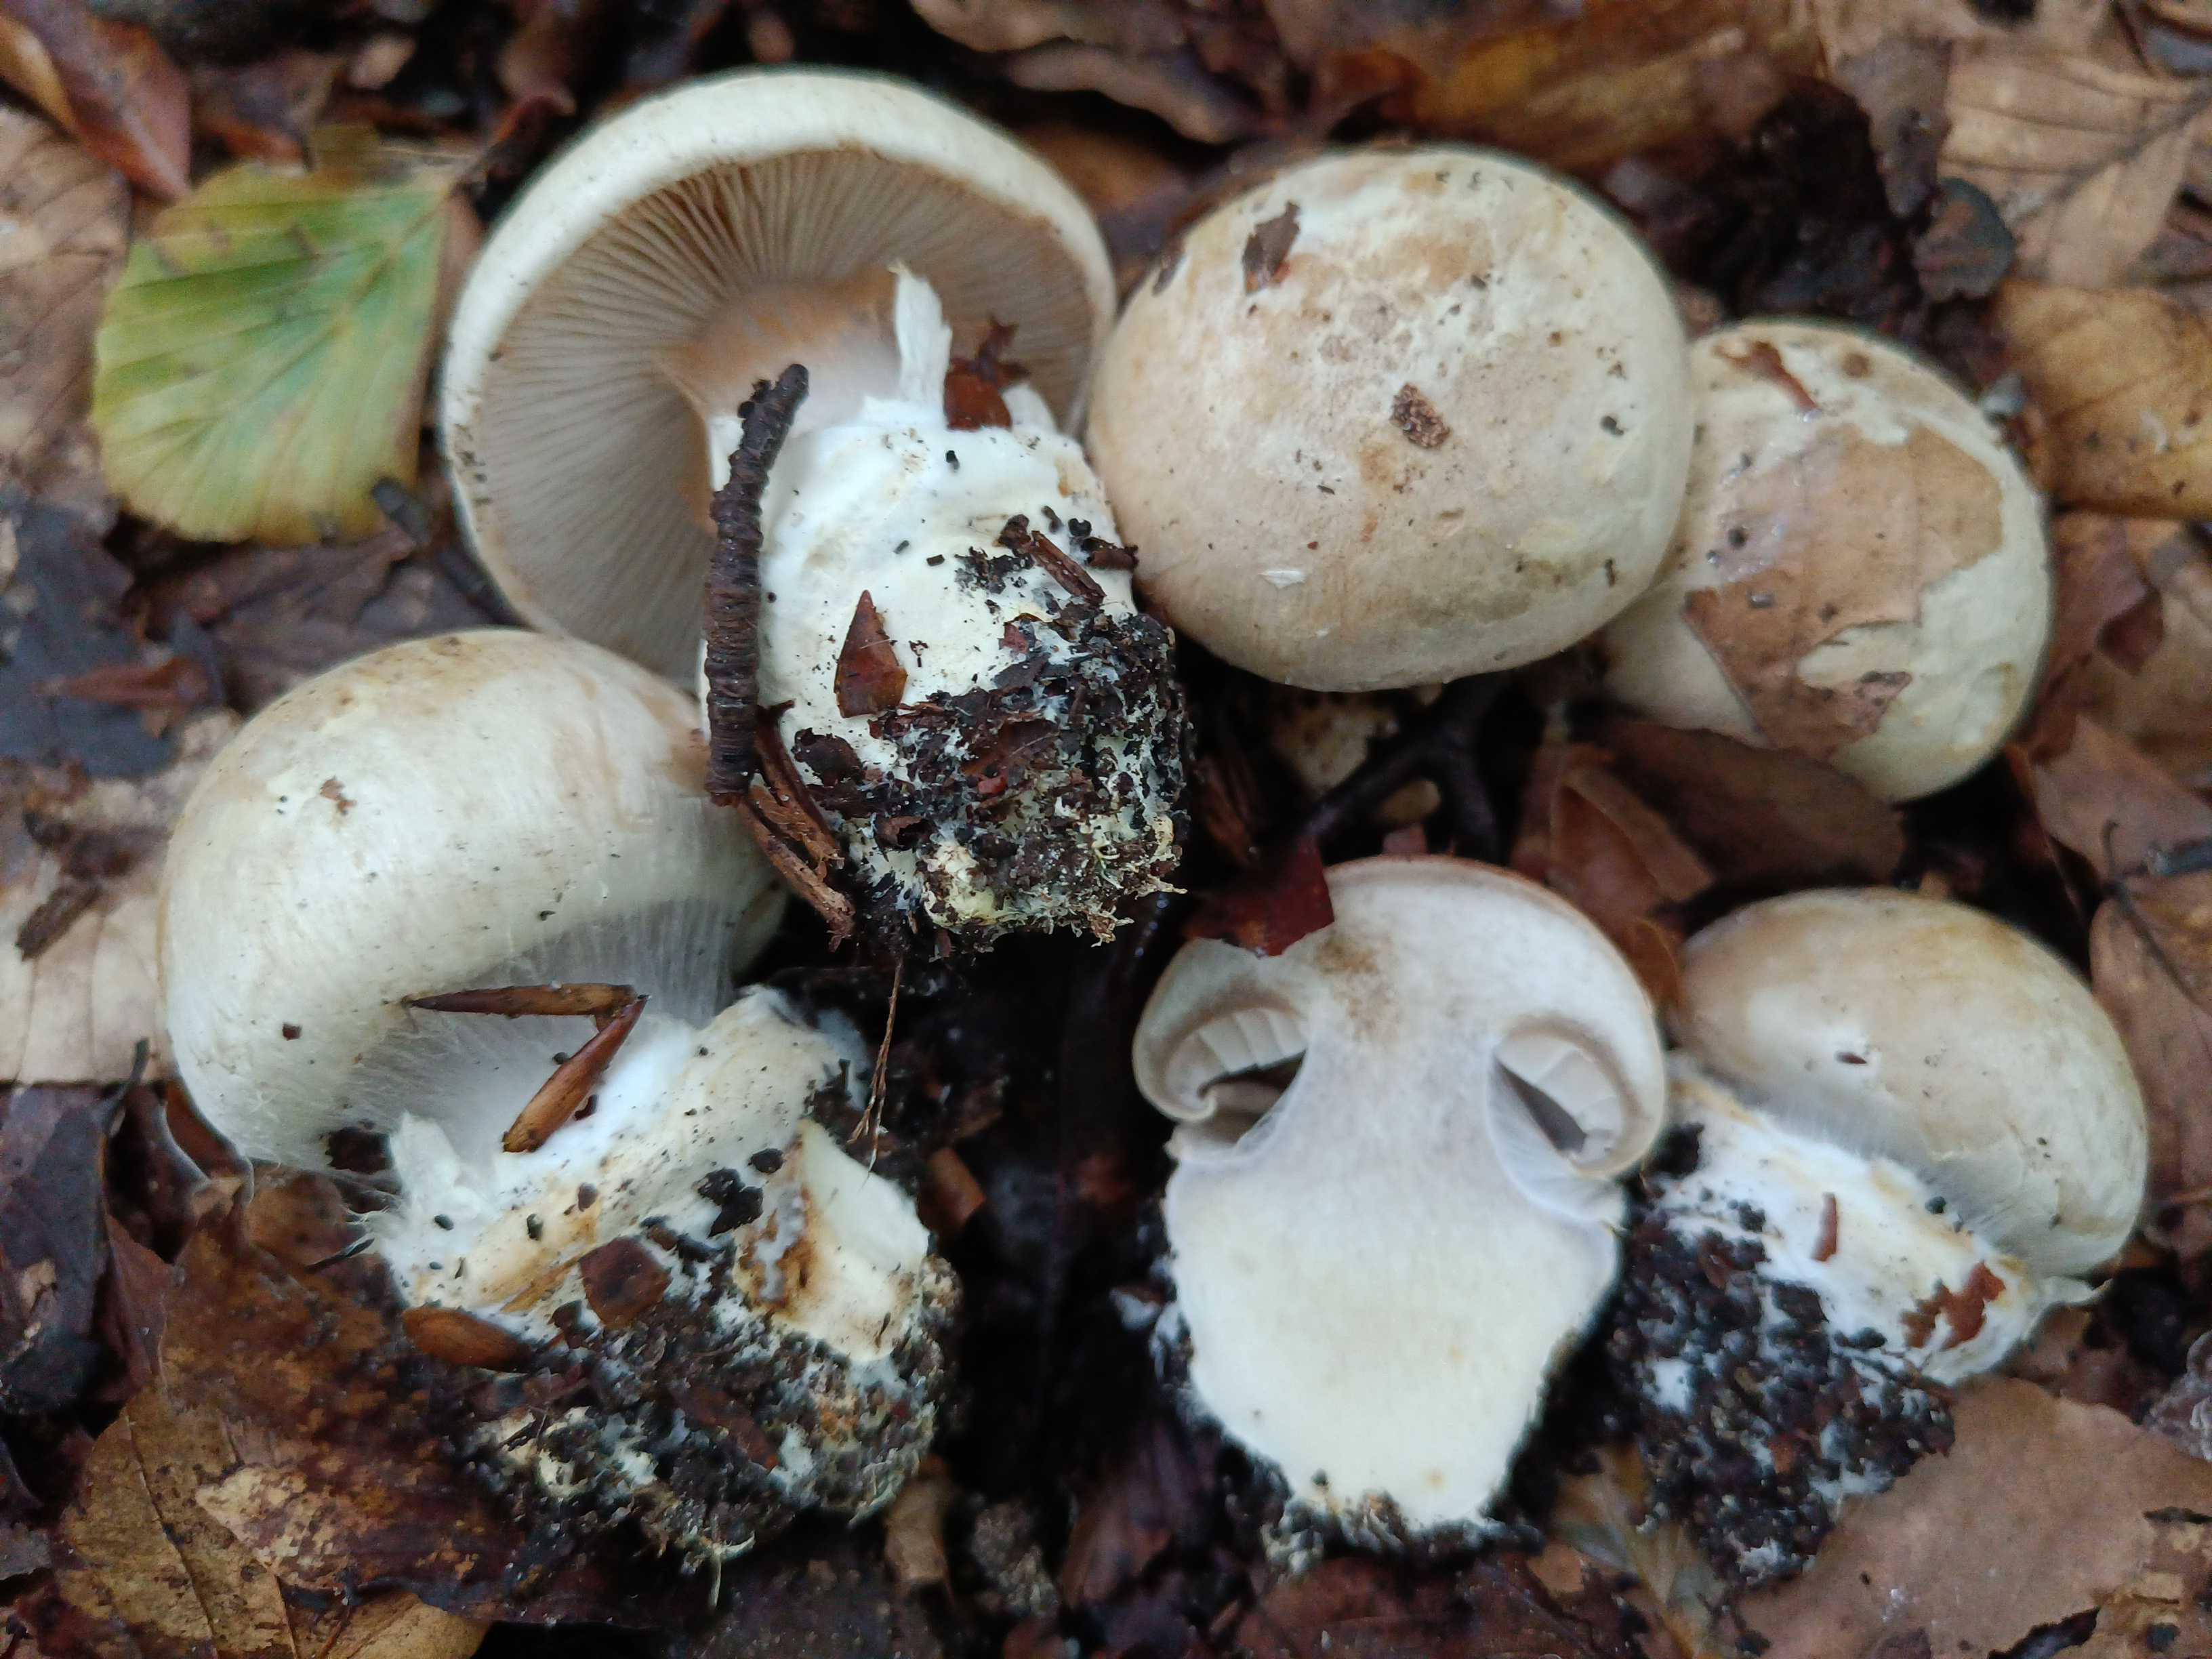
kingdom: Fungi
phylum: Basidiomycota
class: Agaricomycetes
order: Agaricales
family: Cortinariaceae
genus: Cortinarius
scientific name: Cortinarius foetens
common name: stribet slørhat
